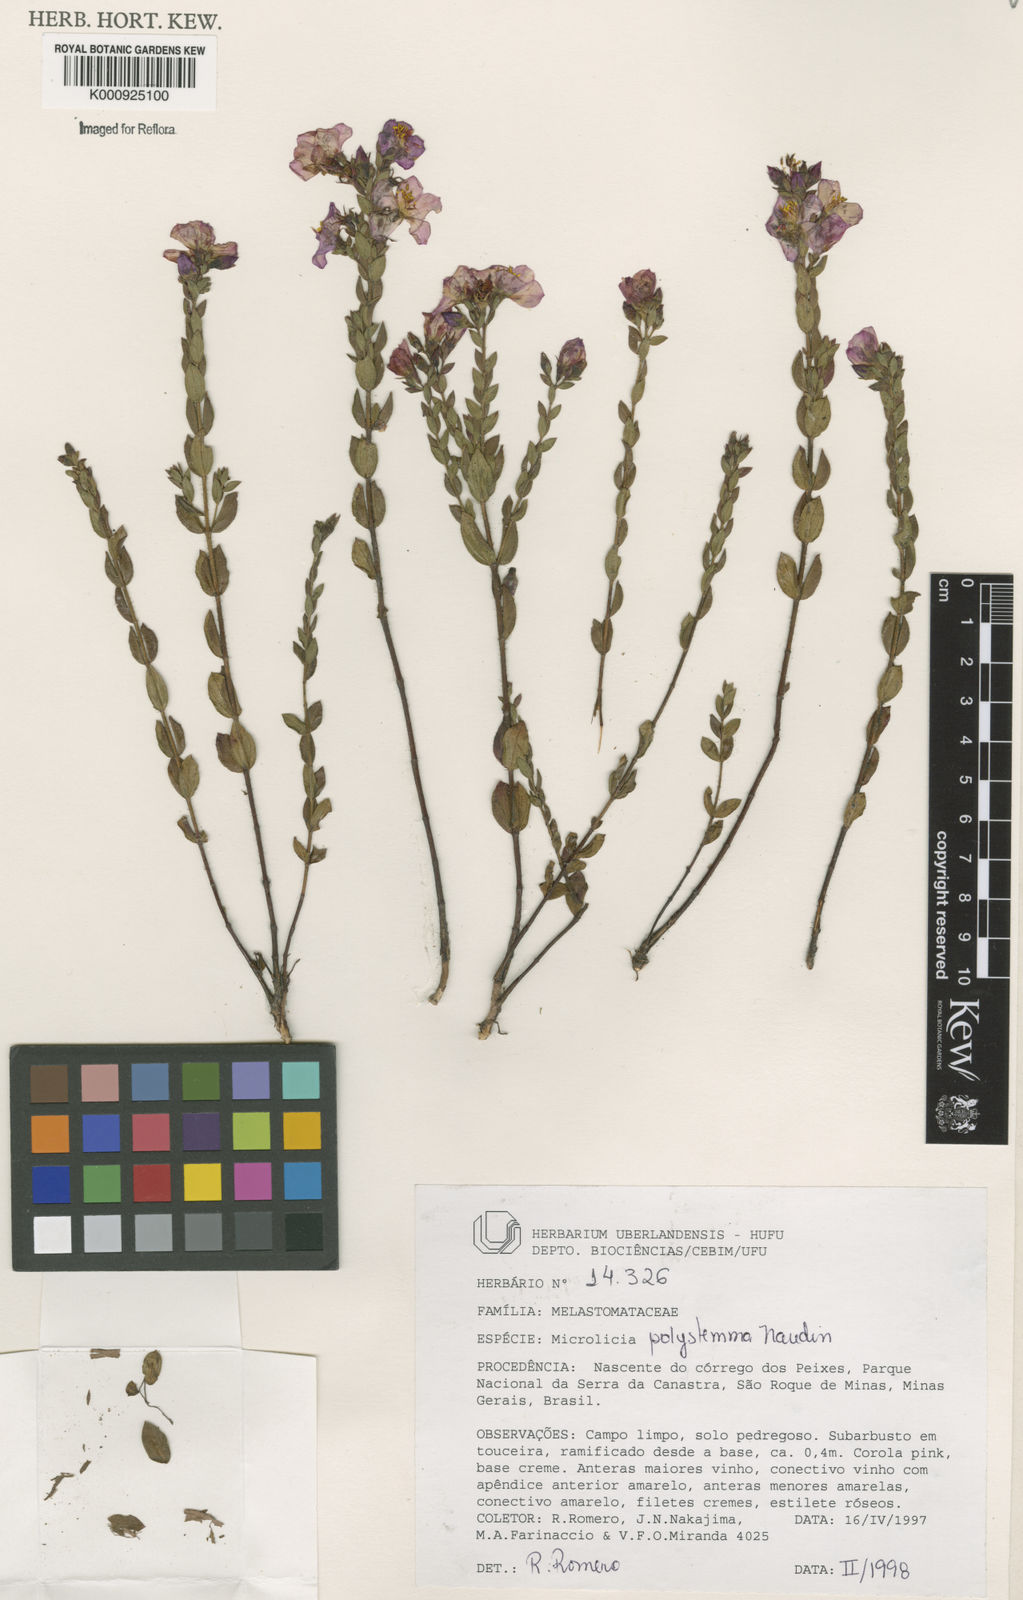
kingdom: Plantae
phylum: Tracheophyta
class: Magnoliopsida
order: Myrtales
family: Melastomataceae
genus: Microlicia
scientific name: Microlicia polystemma
